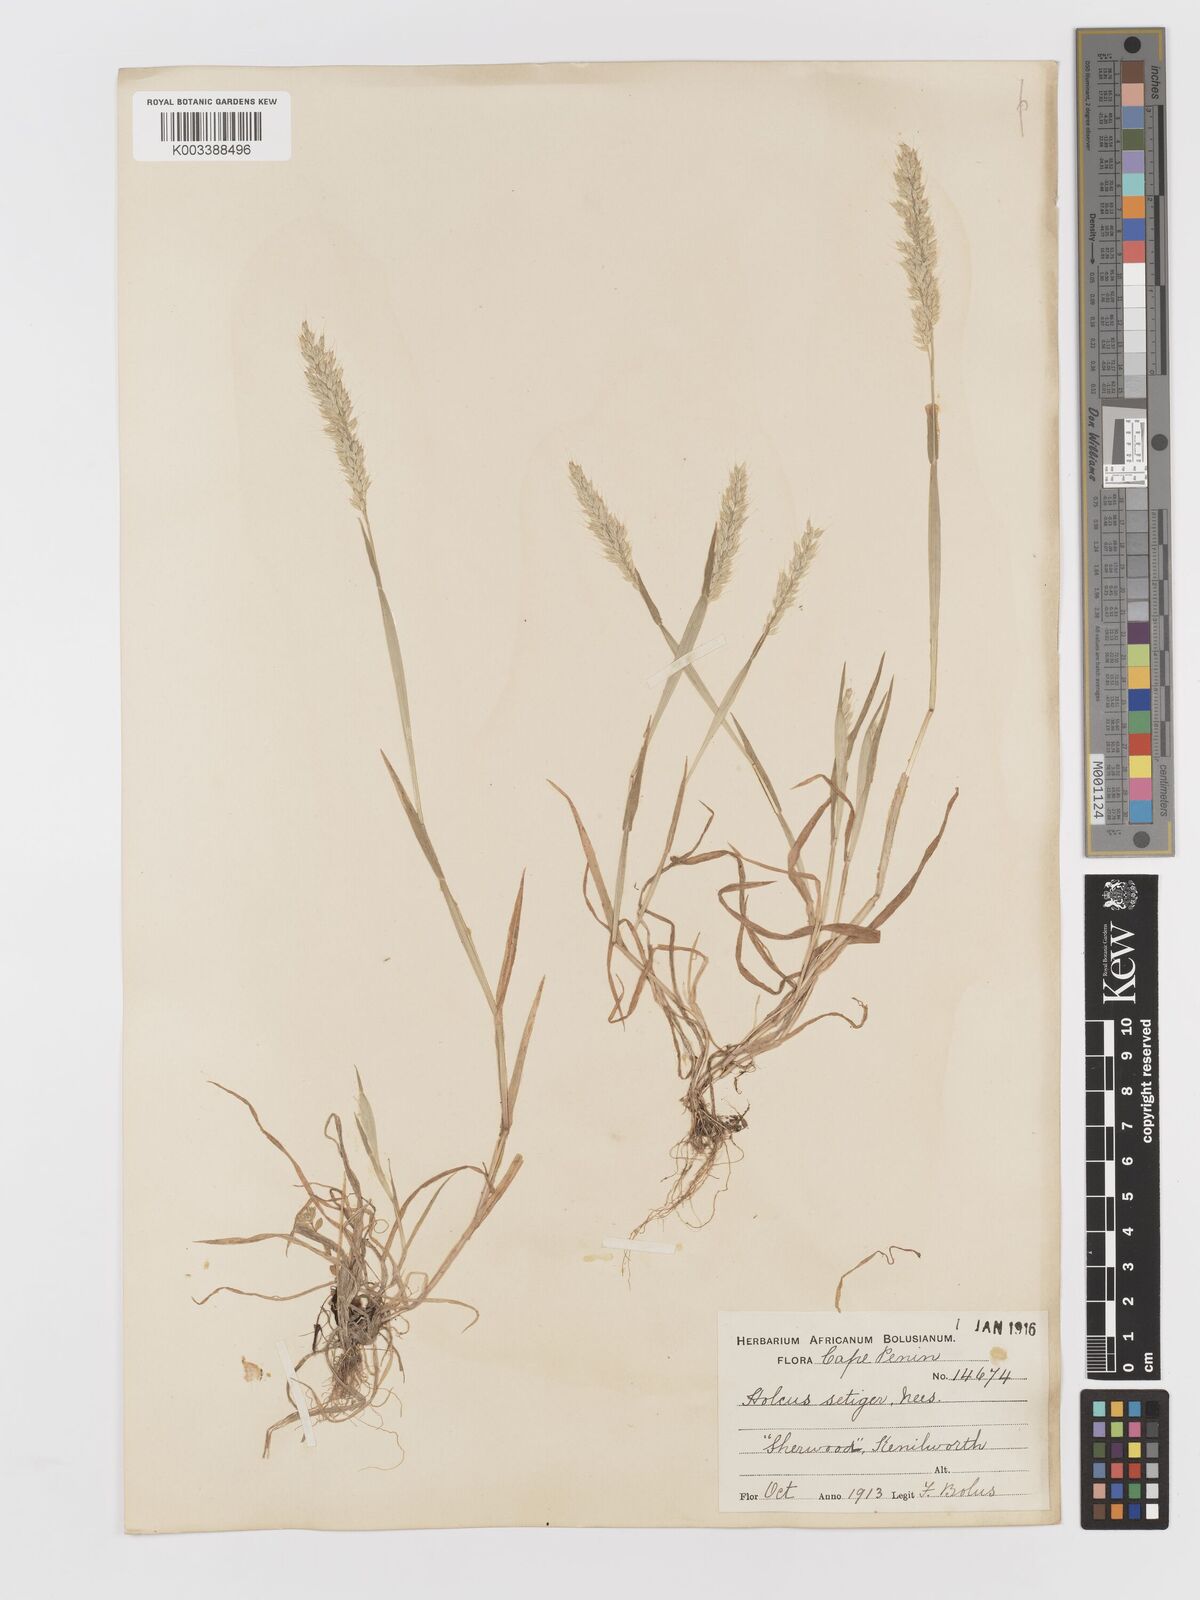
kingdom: Plantae
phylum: Tracheophyta
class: Liliopsida
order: Poales
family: Poaceae
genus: Holcus
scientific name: Holcus setiger
